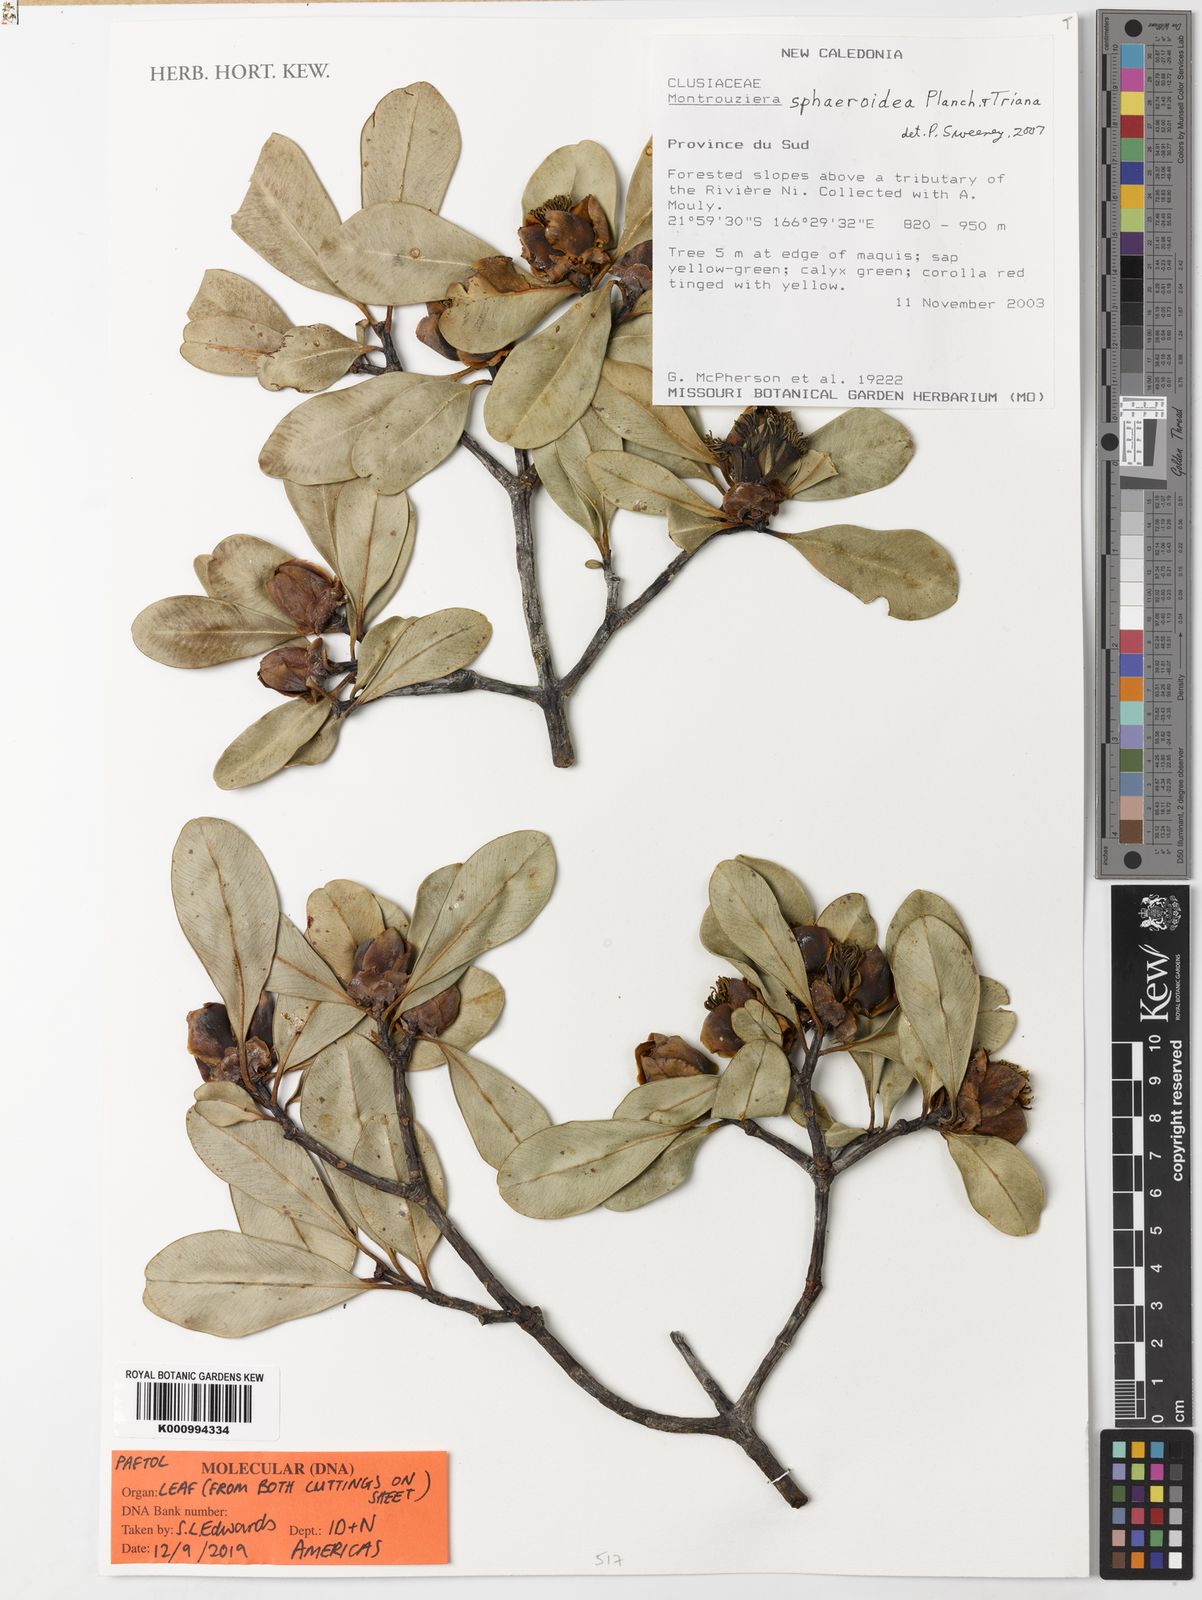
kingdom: Plantae
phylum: Tracheophyta
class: Magnoliopsida
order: Malpighiales
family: Clusiaceae
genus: Montrouziera
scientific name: Montrouziera sphaeroidea
